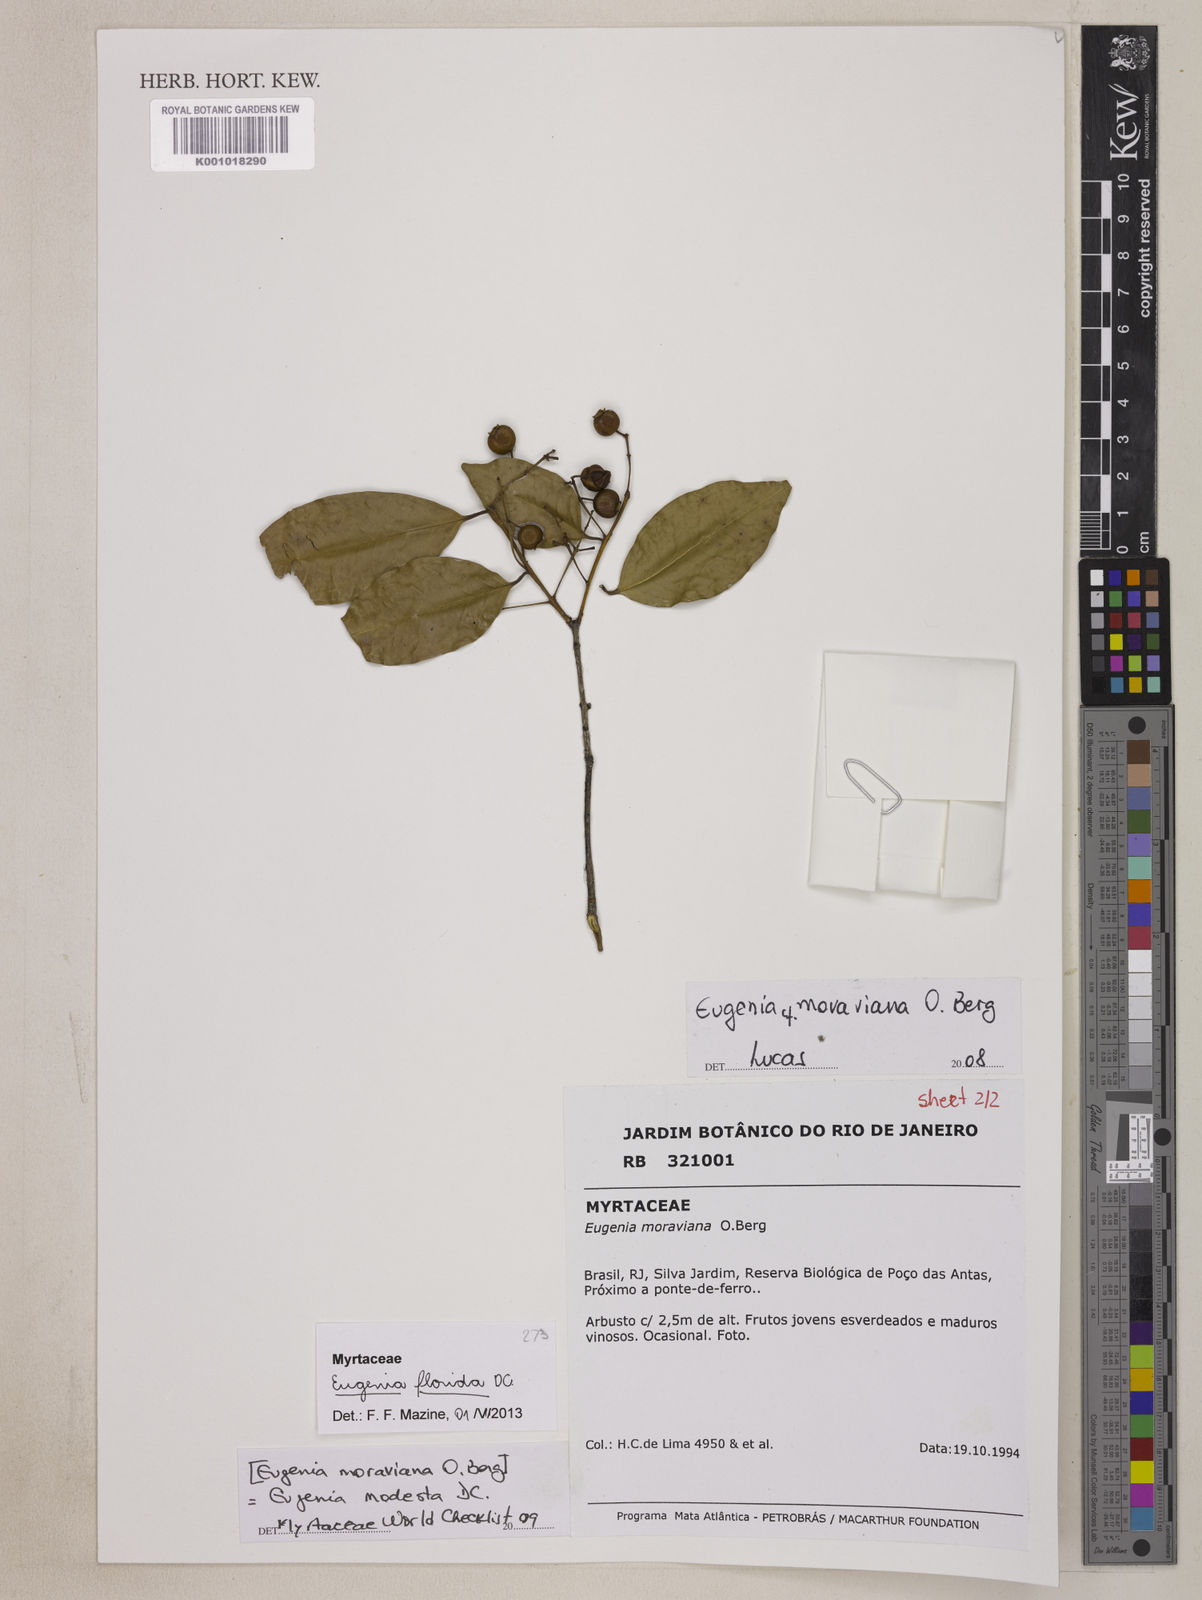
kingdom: Plantae
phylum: Tracheophyta
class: Magnoliopsida
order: Myrtales
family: Myrtaceae
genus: Eugenia
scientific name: Eugenia florida
